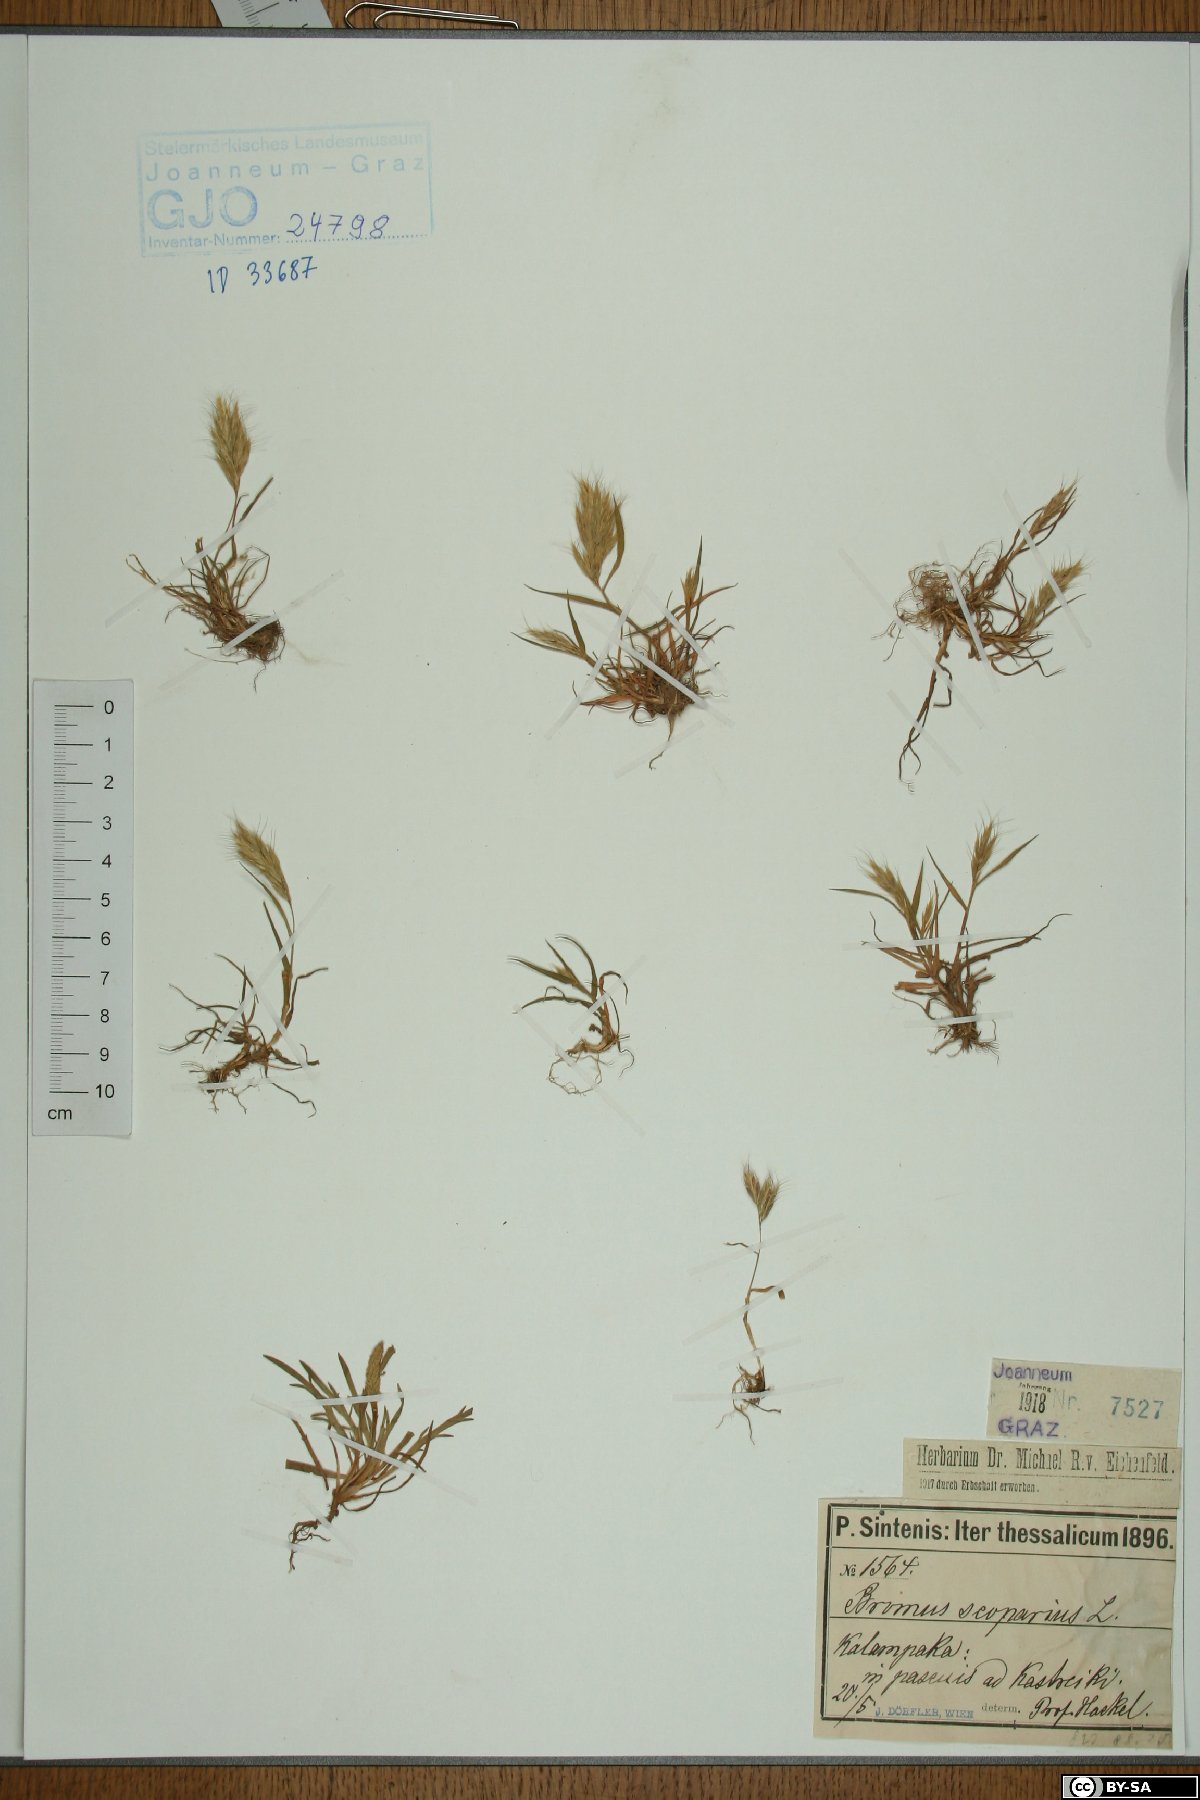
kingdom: Plantae
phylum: Tracheophyta
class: Liliopsida
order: Poales
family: Poaceae
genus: Bromus
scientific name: Bromus scoparius
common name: Broom brome
